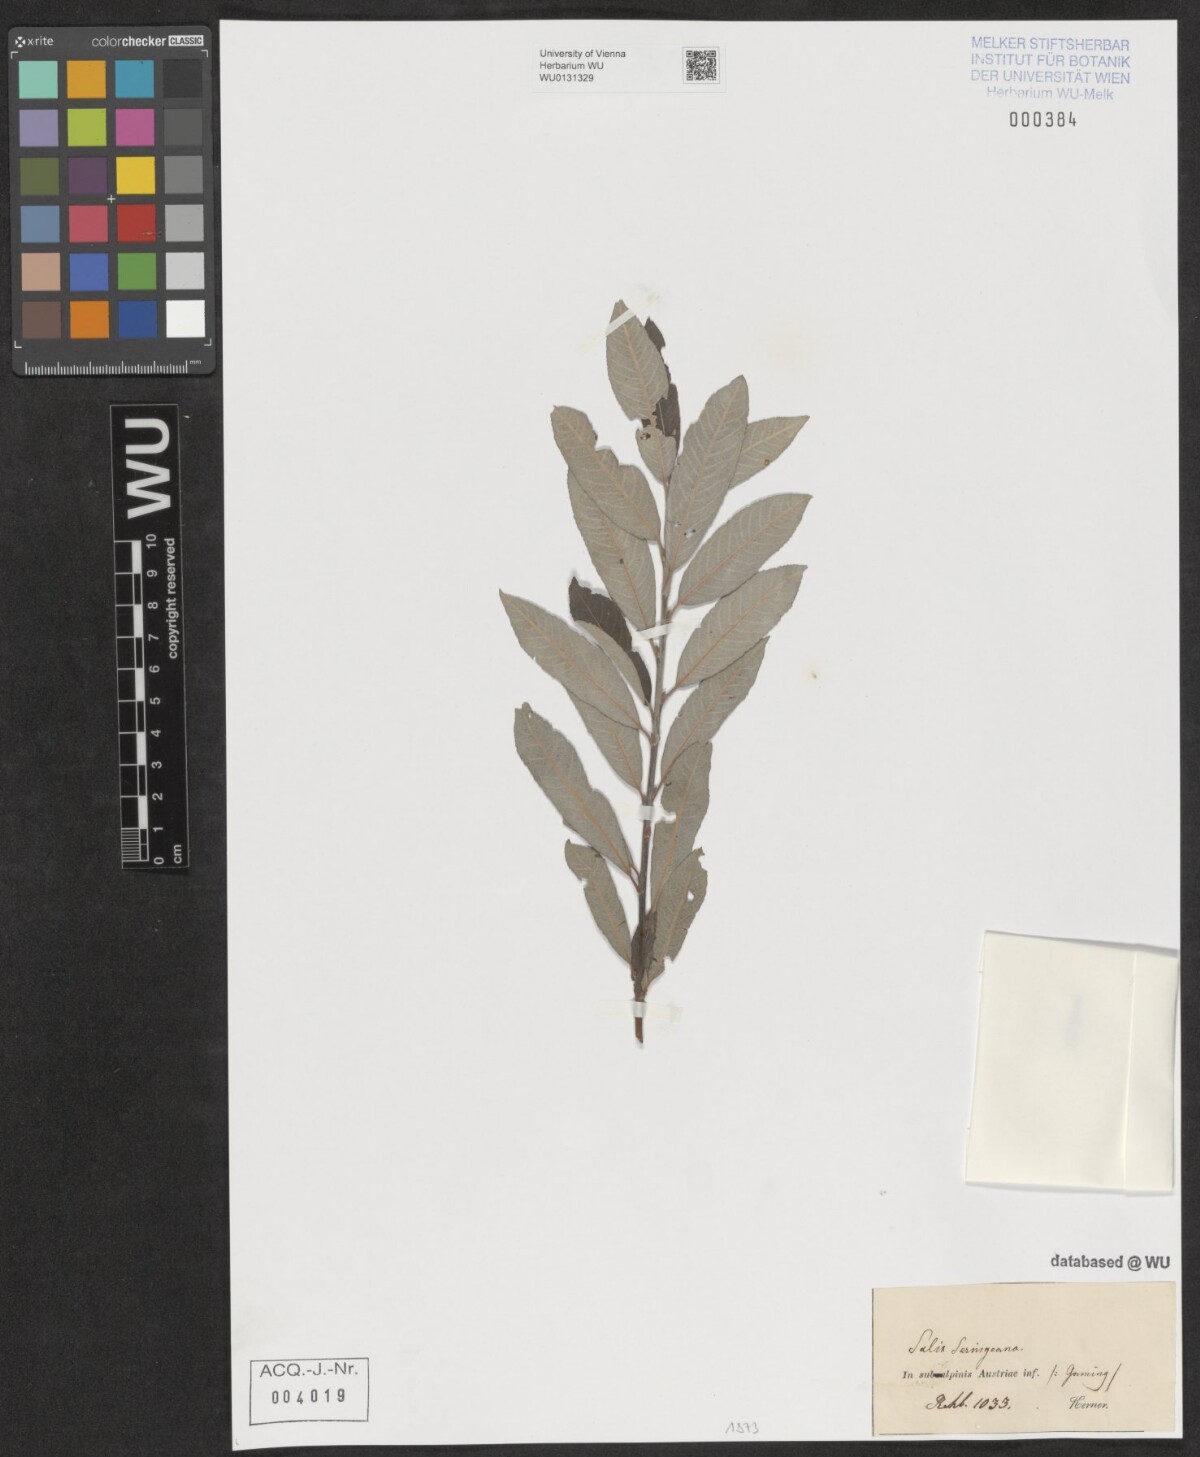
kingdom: Plantae
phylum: Tracheophyta
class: Magnoliopsida
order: Malpighiales
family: Salicaceae
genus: Salix
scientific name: Salix seringeana
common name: Seringe willow
